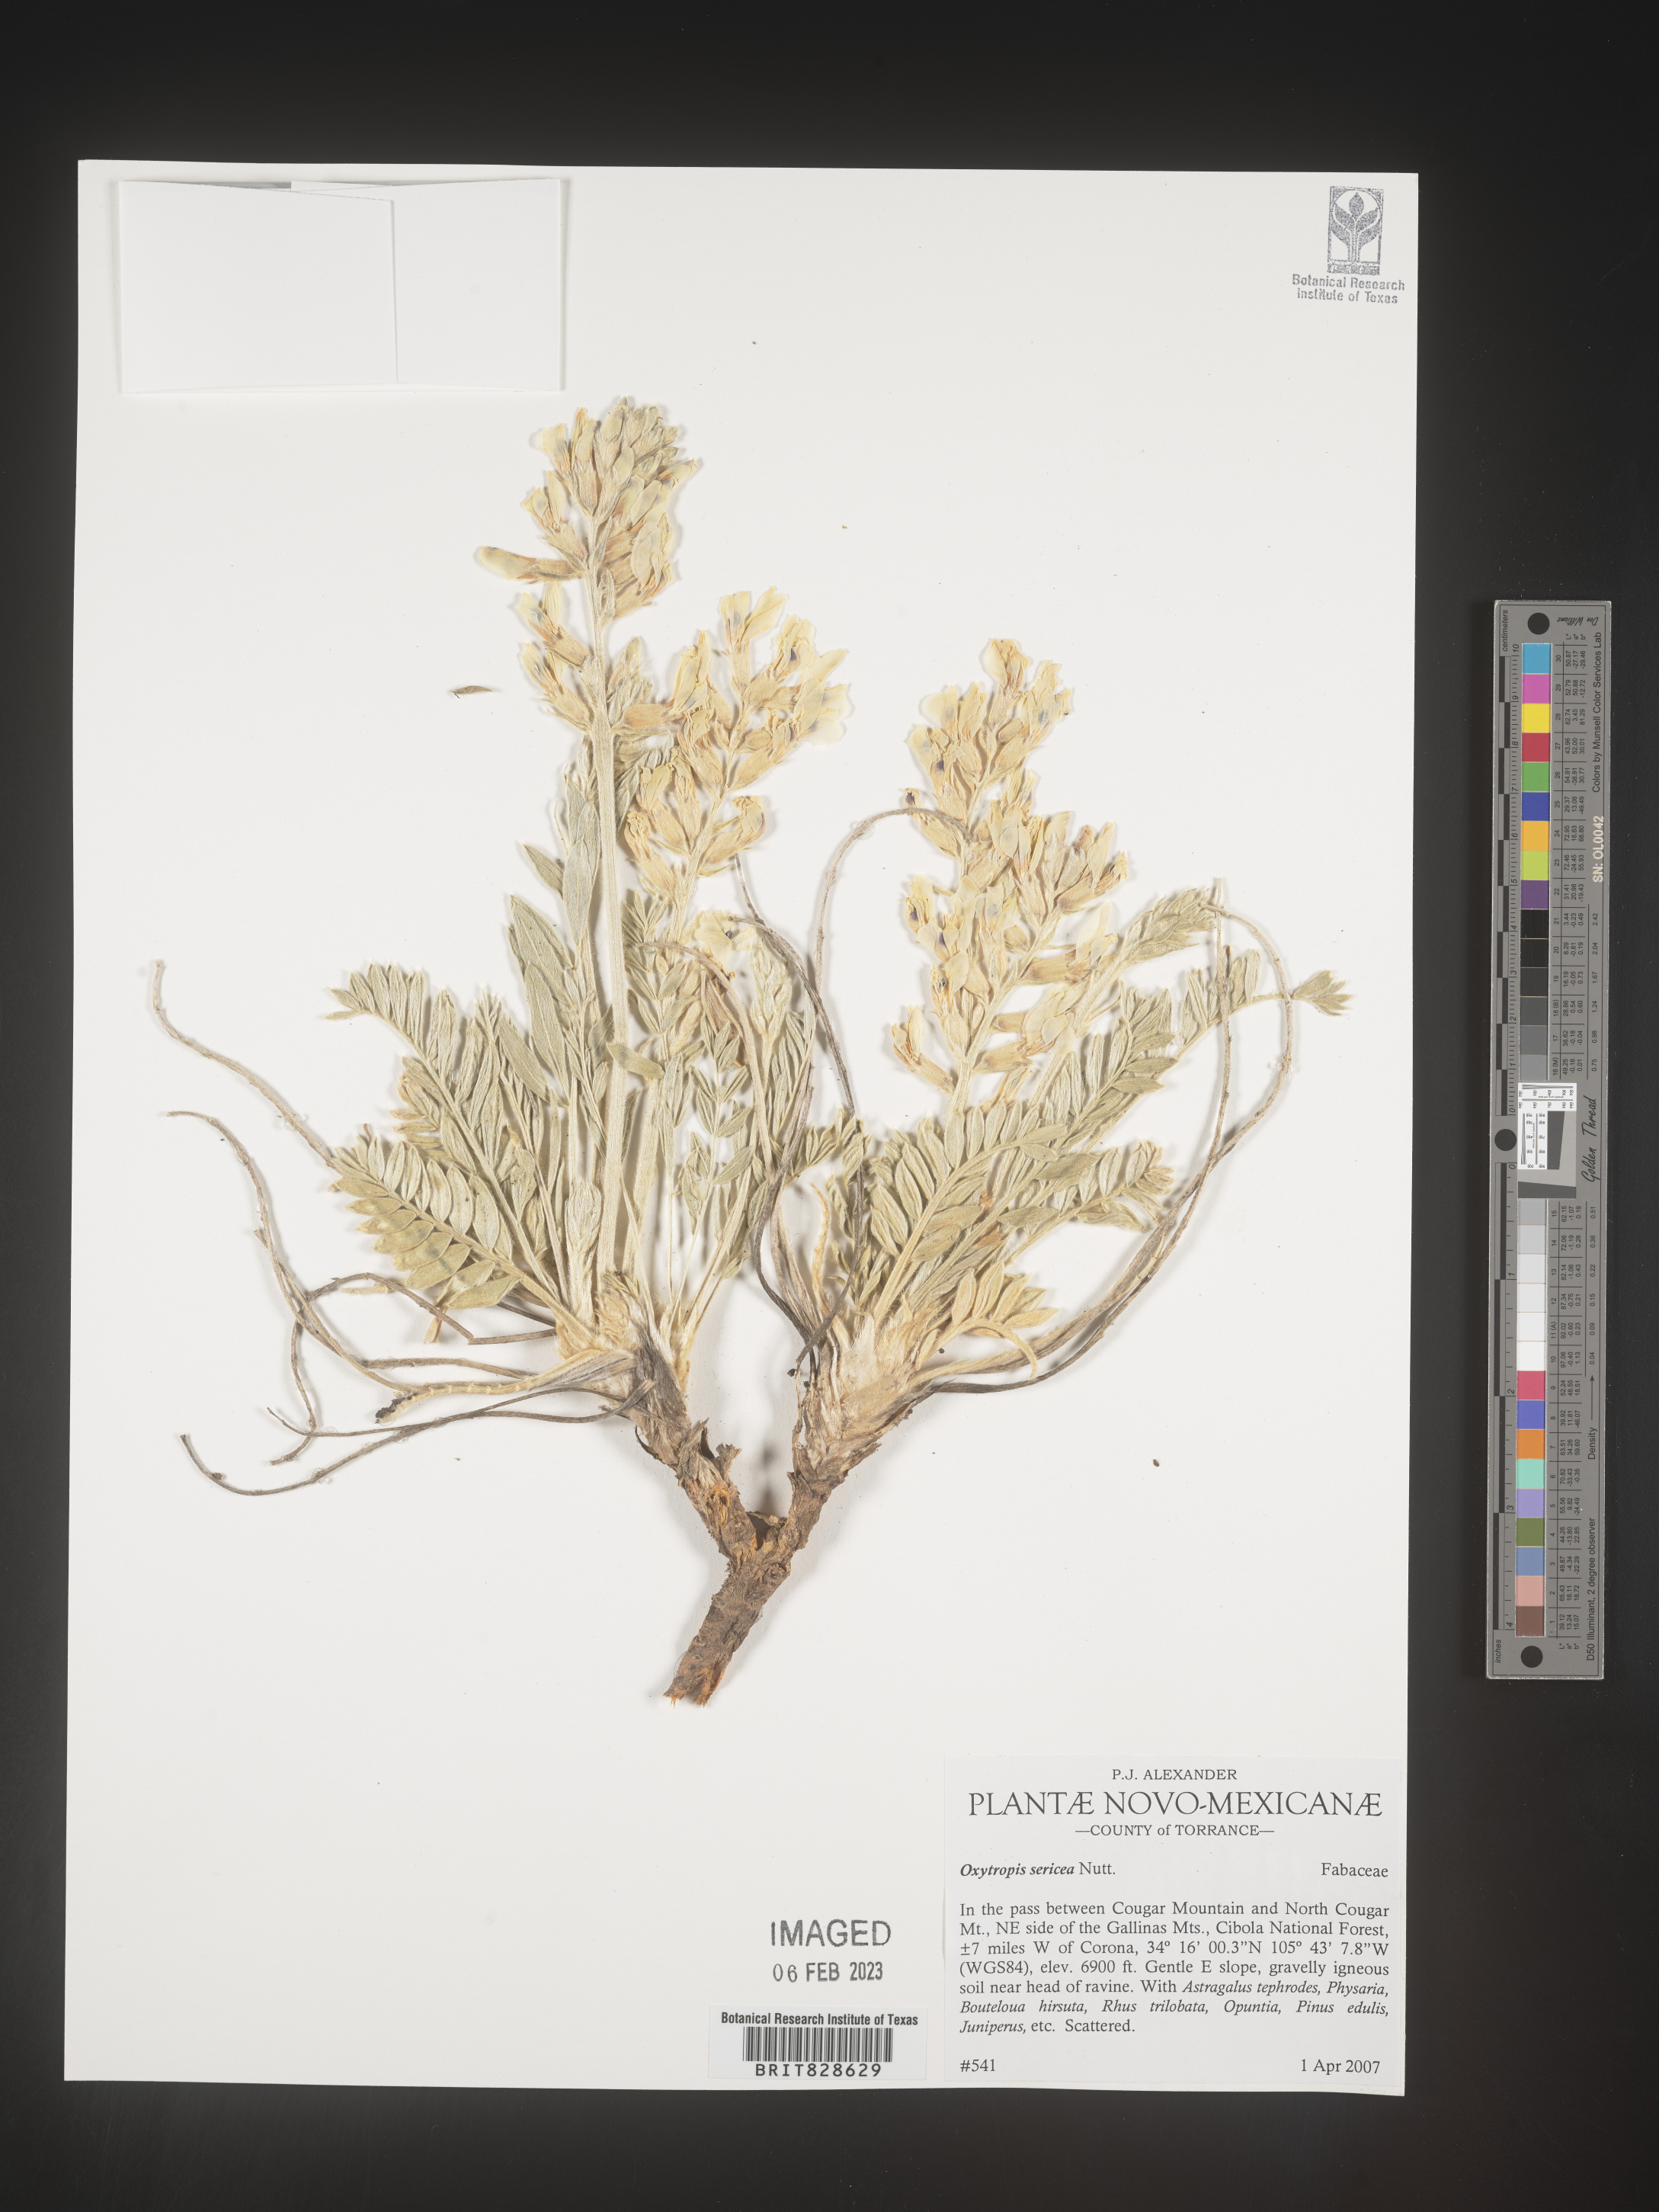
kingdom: Plantae
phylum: Tracheophyta
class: Magnoliopsida
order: Fabales
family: Fabaceae
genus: Oxytropis
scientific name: Oxytropis
